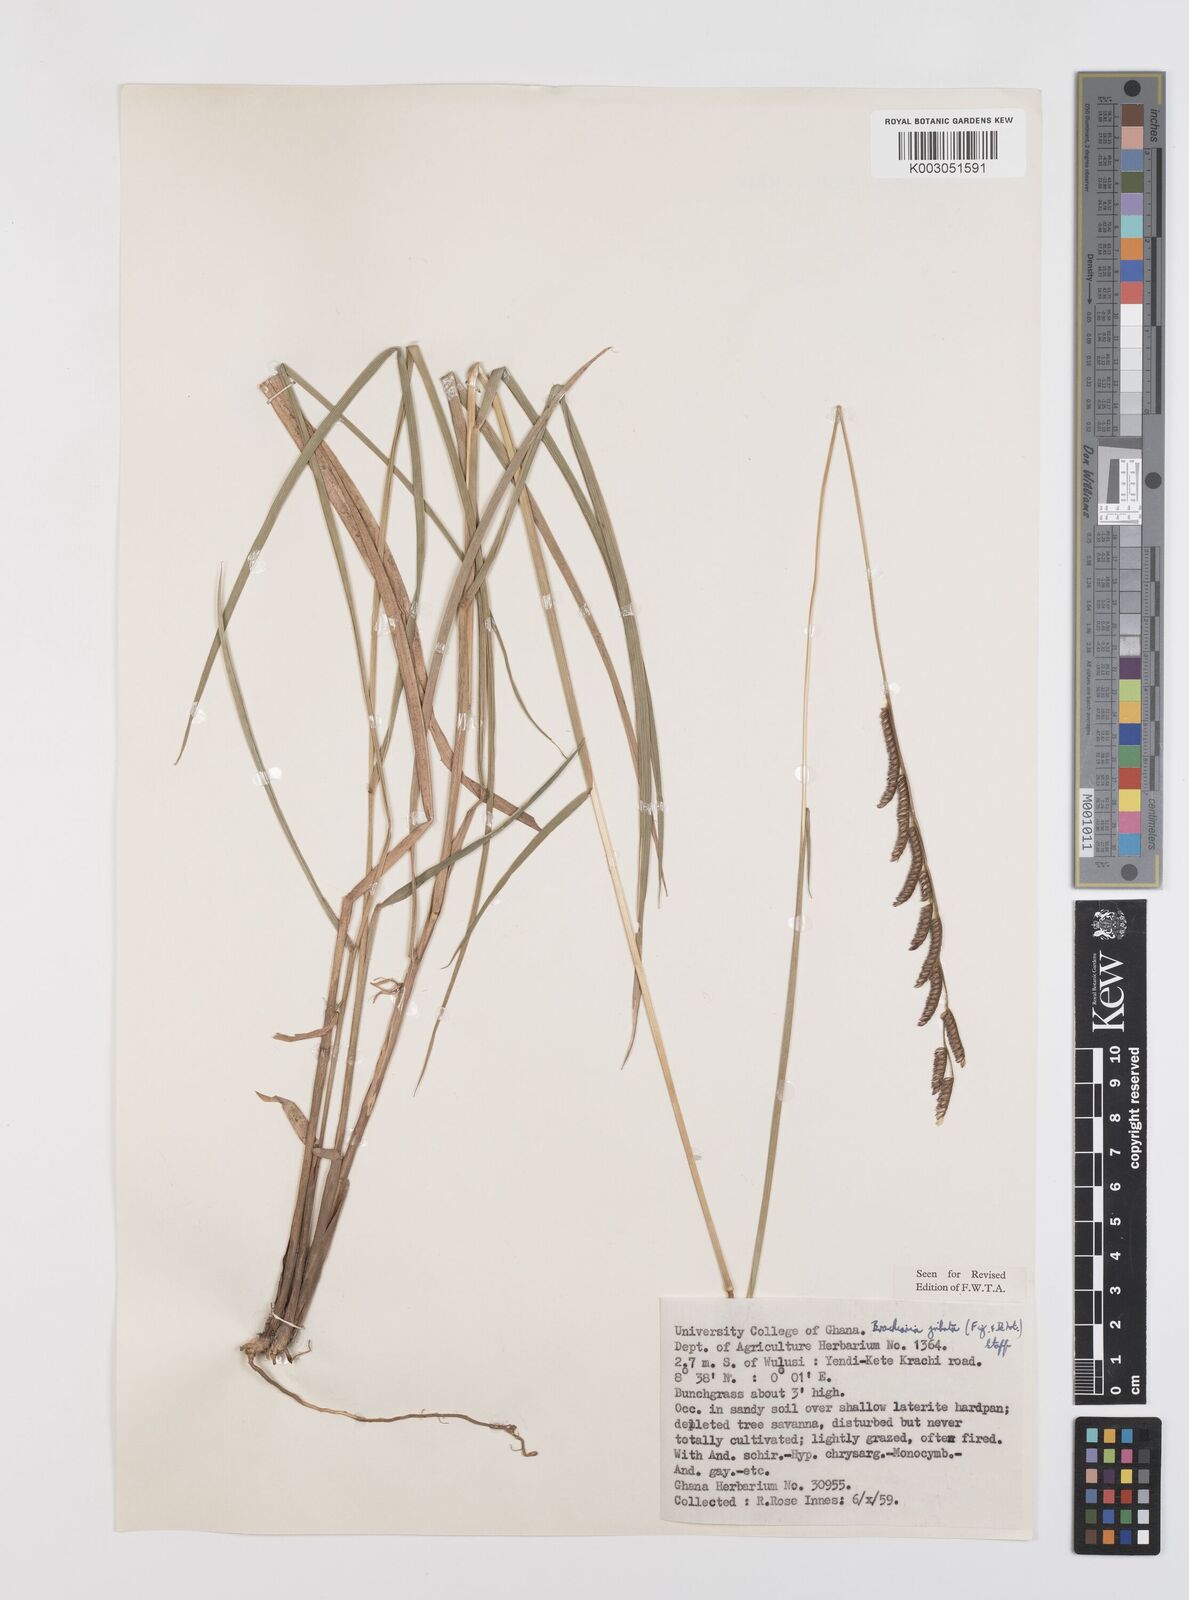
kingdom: Plantae
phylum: Tracheophyta
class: Liliopsida
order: Poales
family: Poaceae
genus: Urochloa
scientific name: Urochloa jubata
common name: Buffalograss
